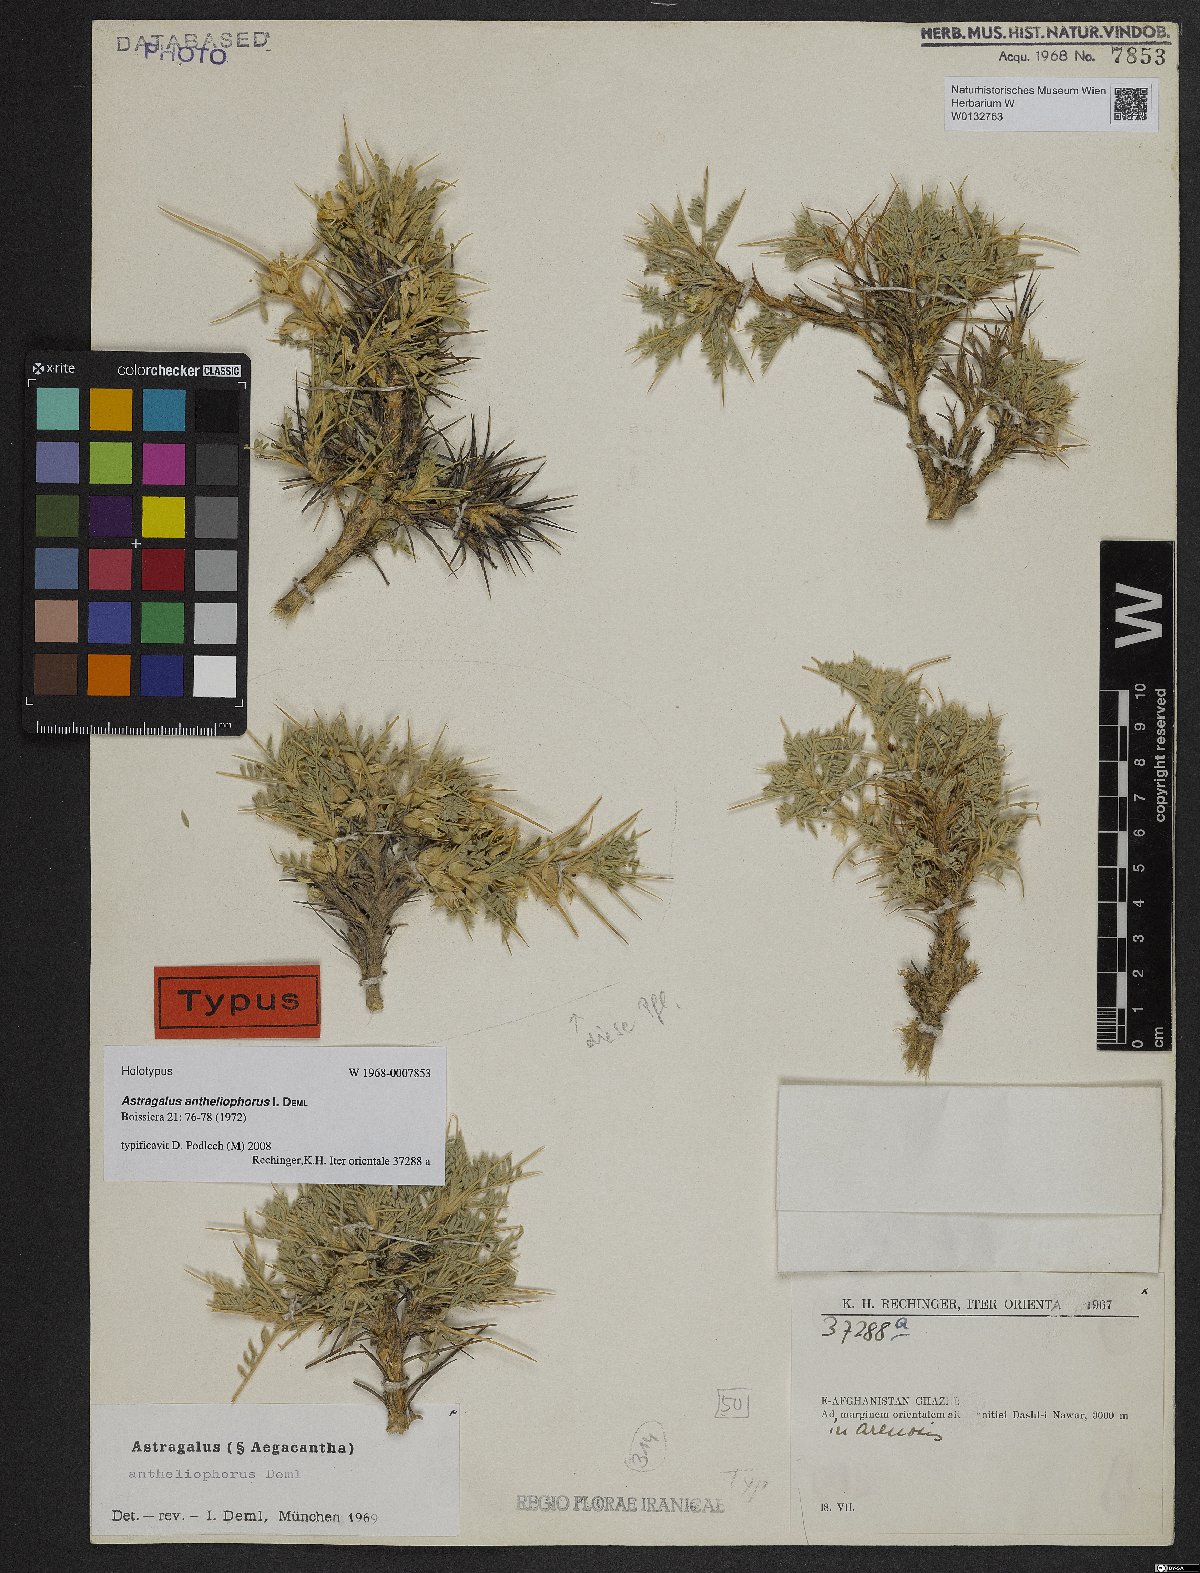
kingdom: Plantae
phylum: Tracheophyta
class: Magnoliopsida
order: Fabales
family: Fabaceae
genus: Astragalus
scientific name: Astragalus antheliophorus
